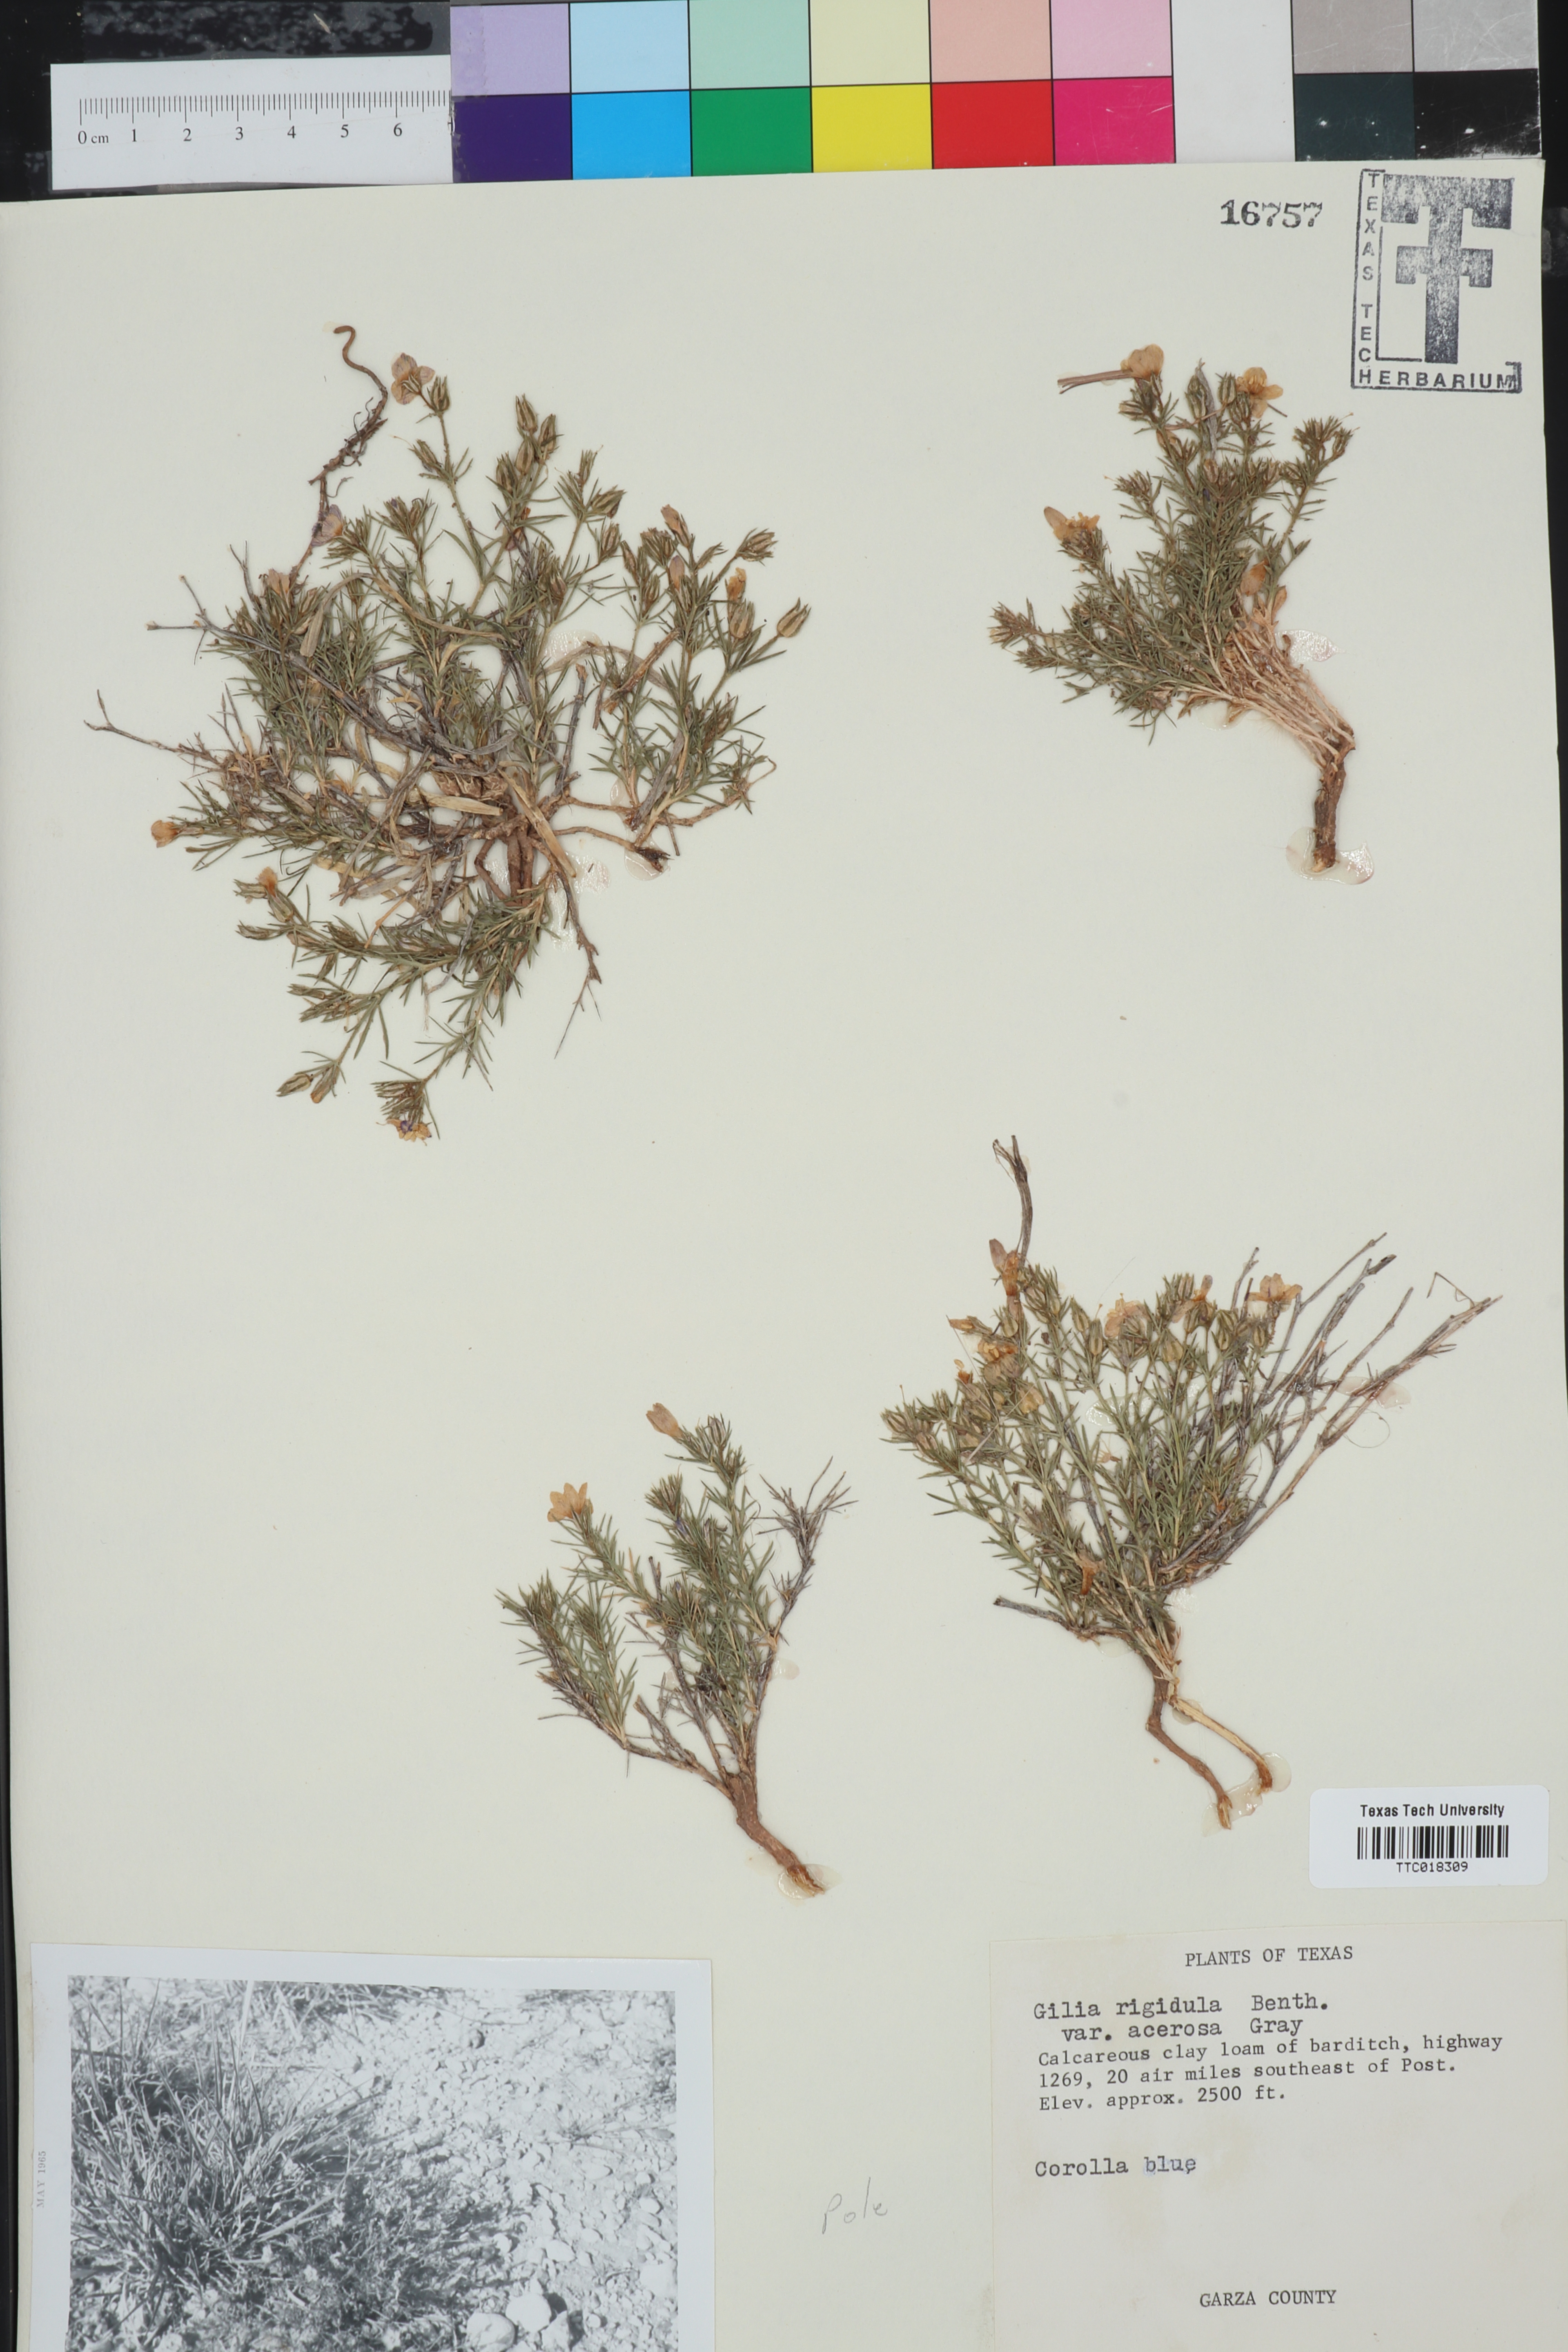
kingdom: Plantae
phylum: Tracheophyta
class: Magnoliopsida
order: Ericales
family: Polemoniaceae
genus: Giliastrum
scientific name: Giliastrum acerosum
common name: Bluebowls
